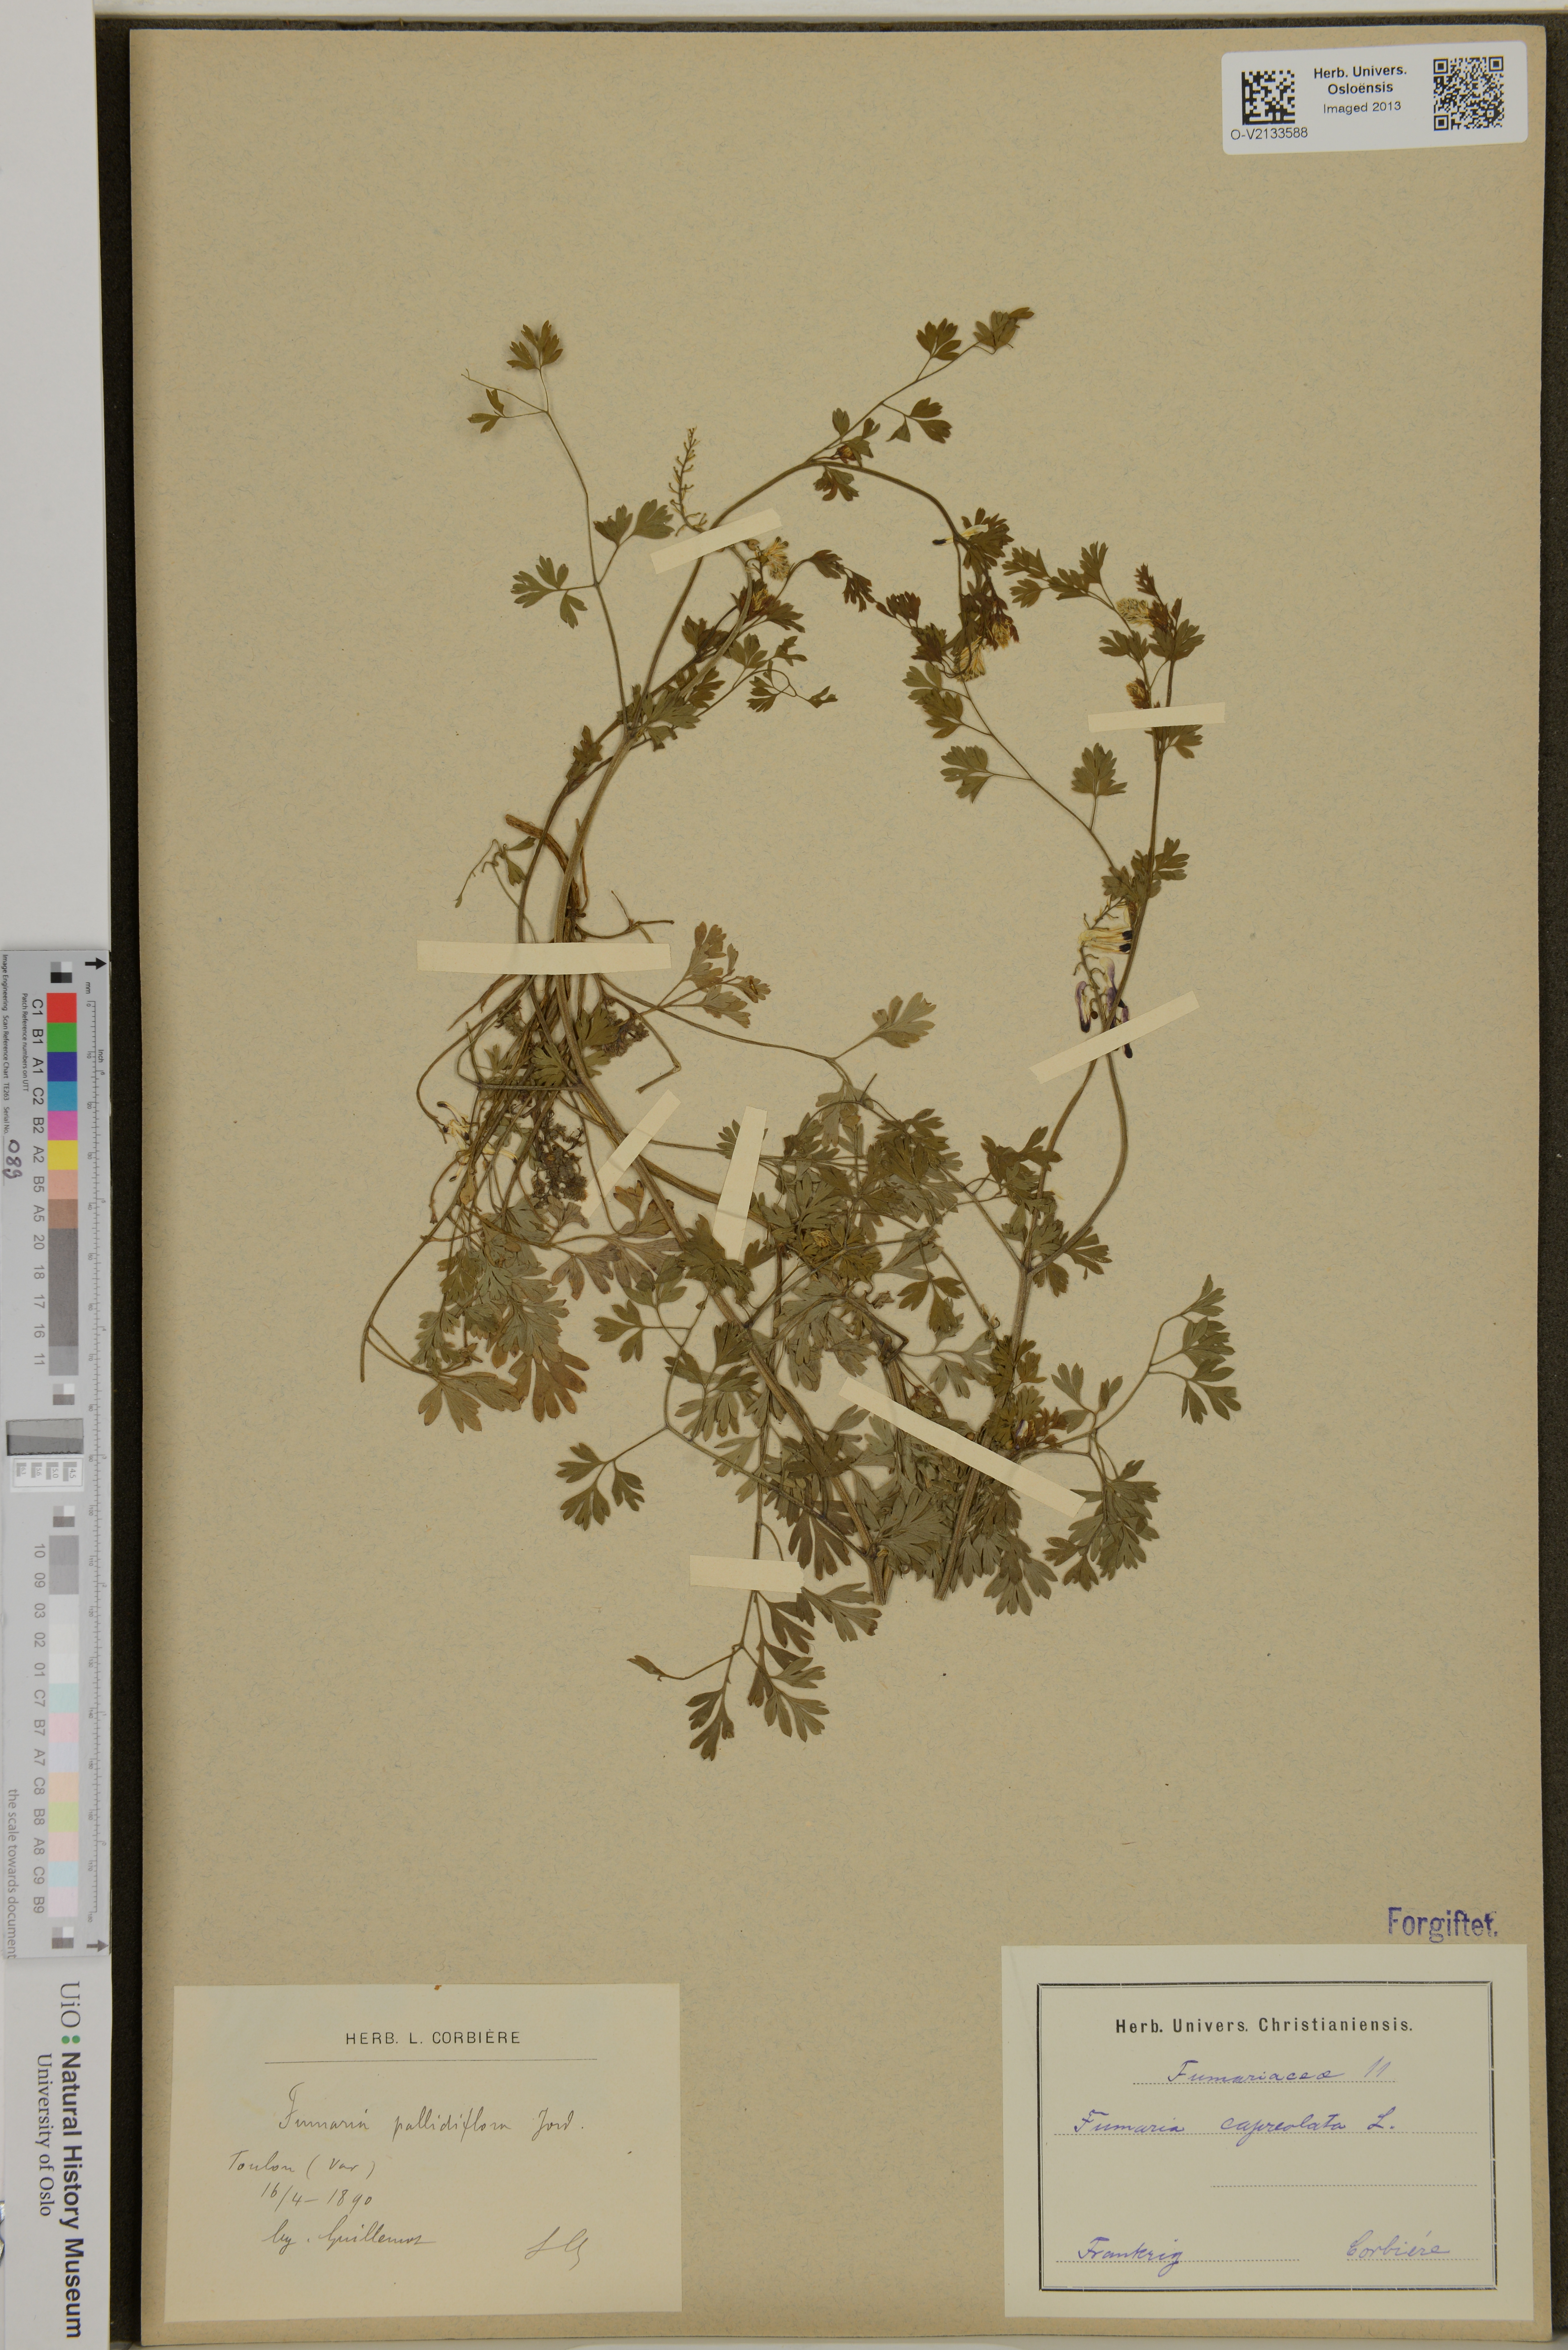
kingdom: Plantae
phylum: Tracheophyta
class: Magnoliopsida
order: Ranunculales
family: Papaveraceae
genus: Fumaria
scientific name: Fumaria capreolata
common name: White ramping-fumitory
